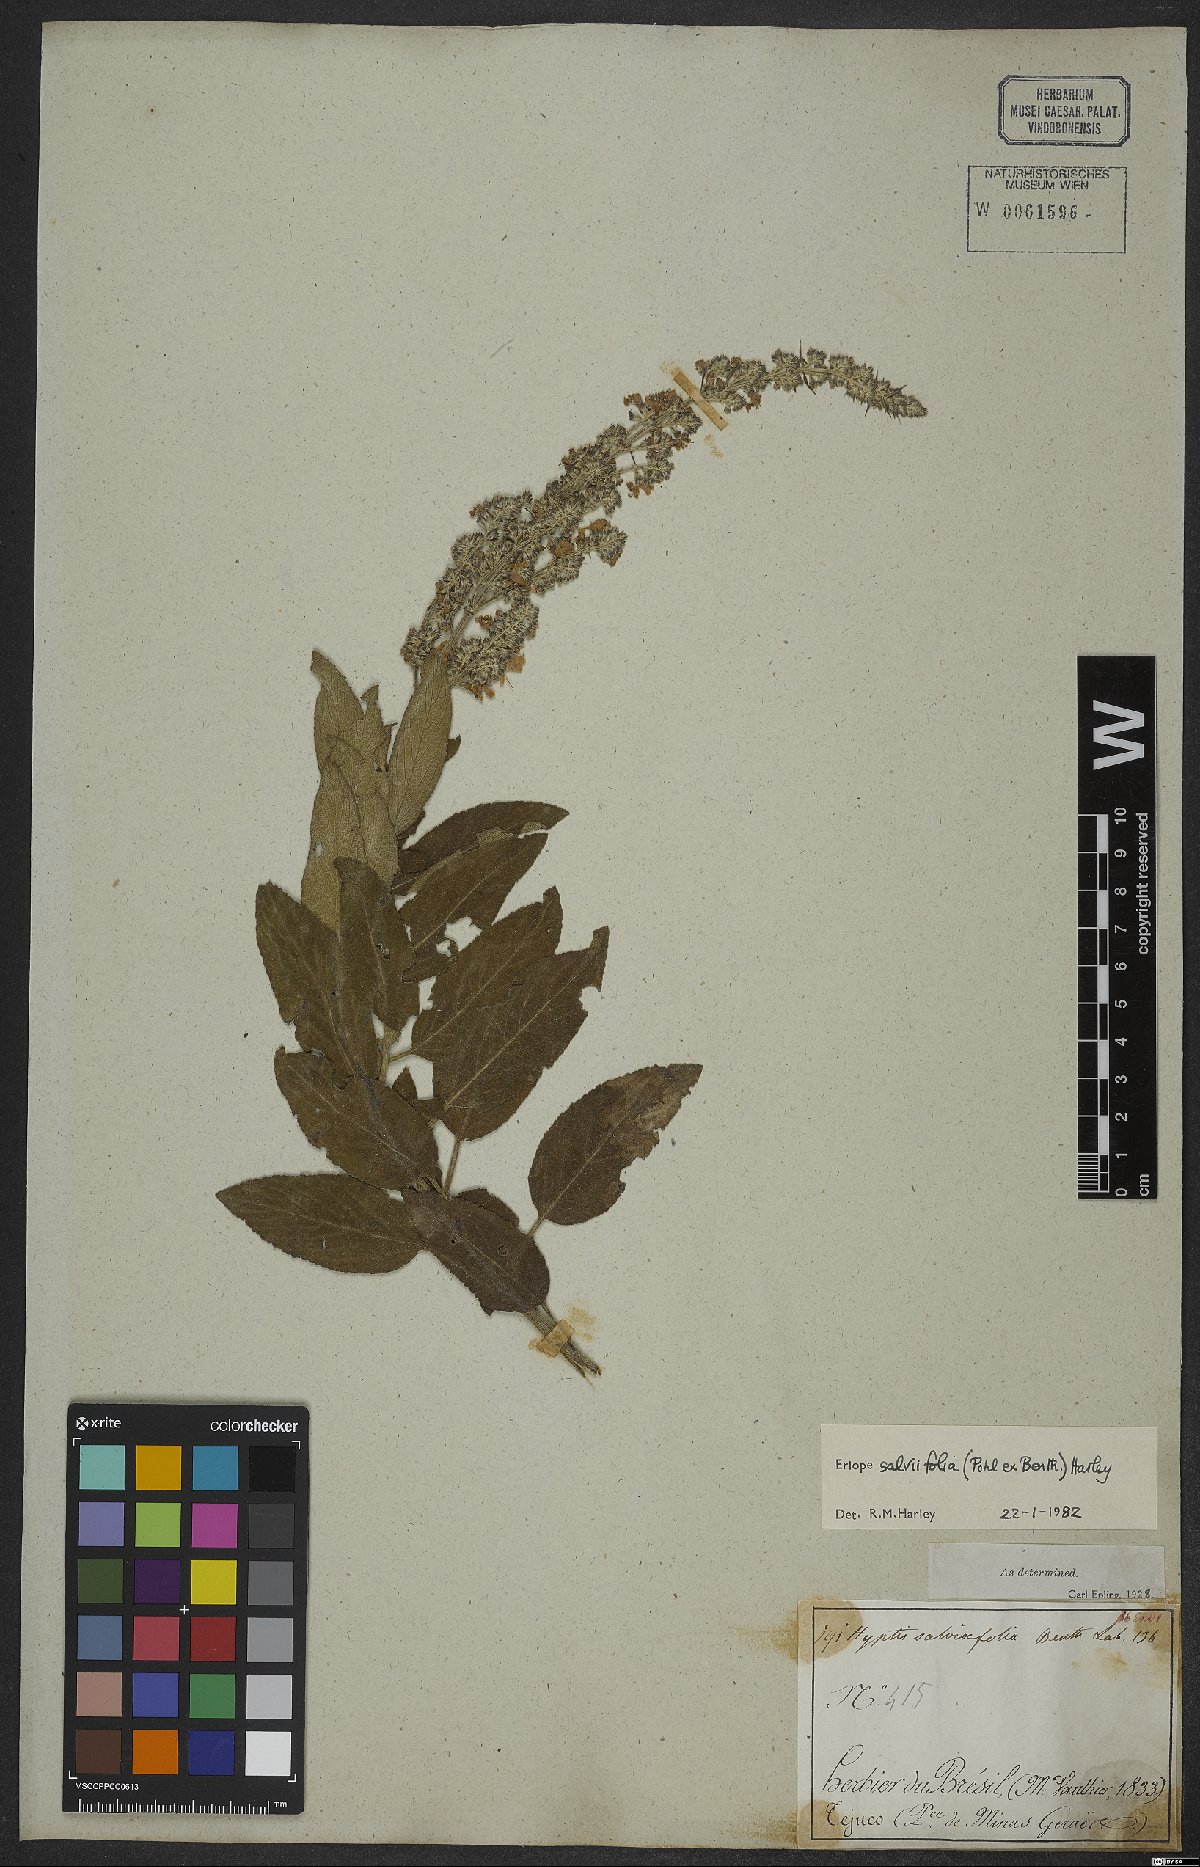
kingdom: Plantae
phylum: Tracheophyta
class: Magnoliopsida
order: Lamiales
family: Lamiaceae
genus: Eriope
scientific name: Eriope salviifolia
